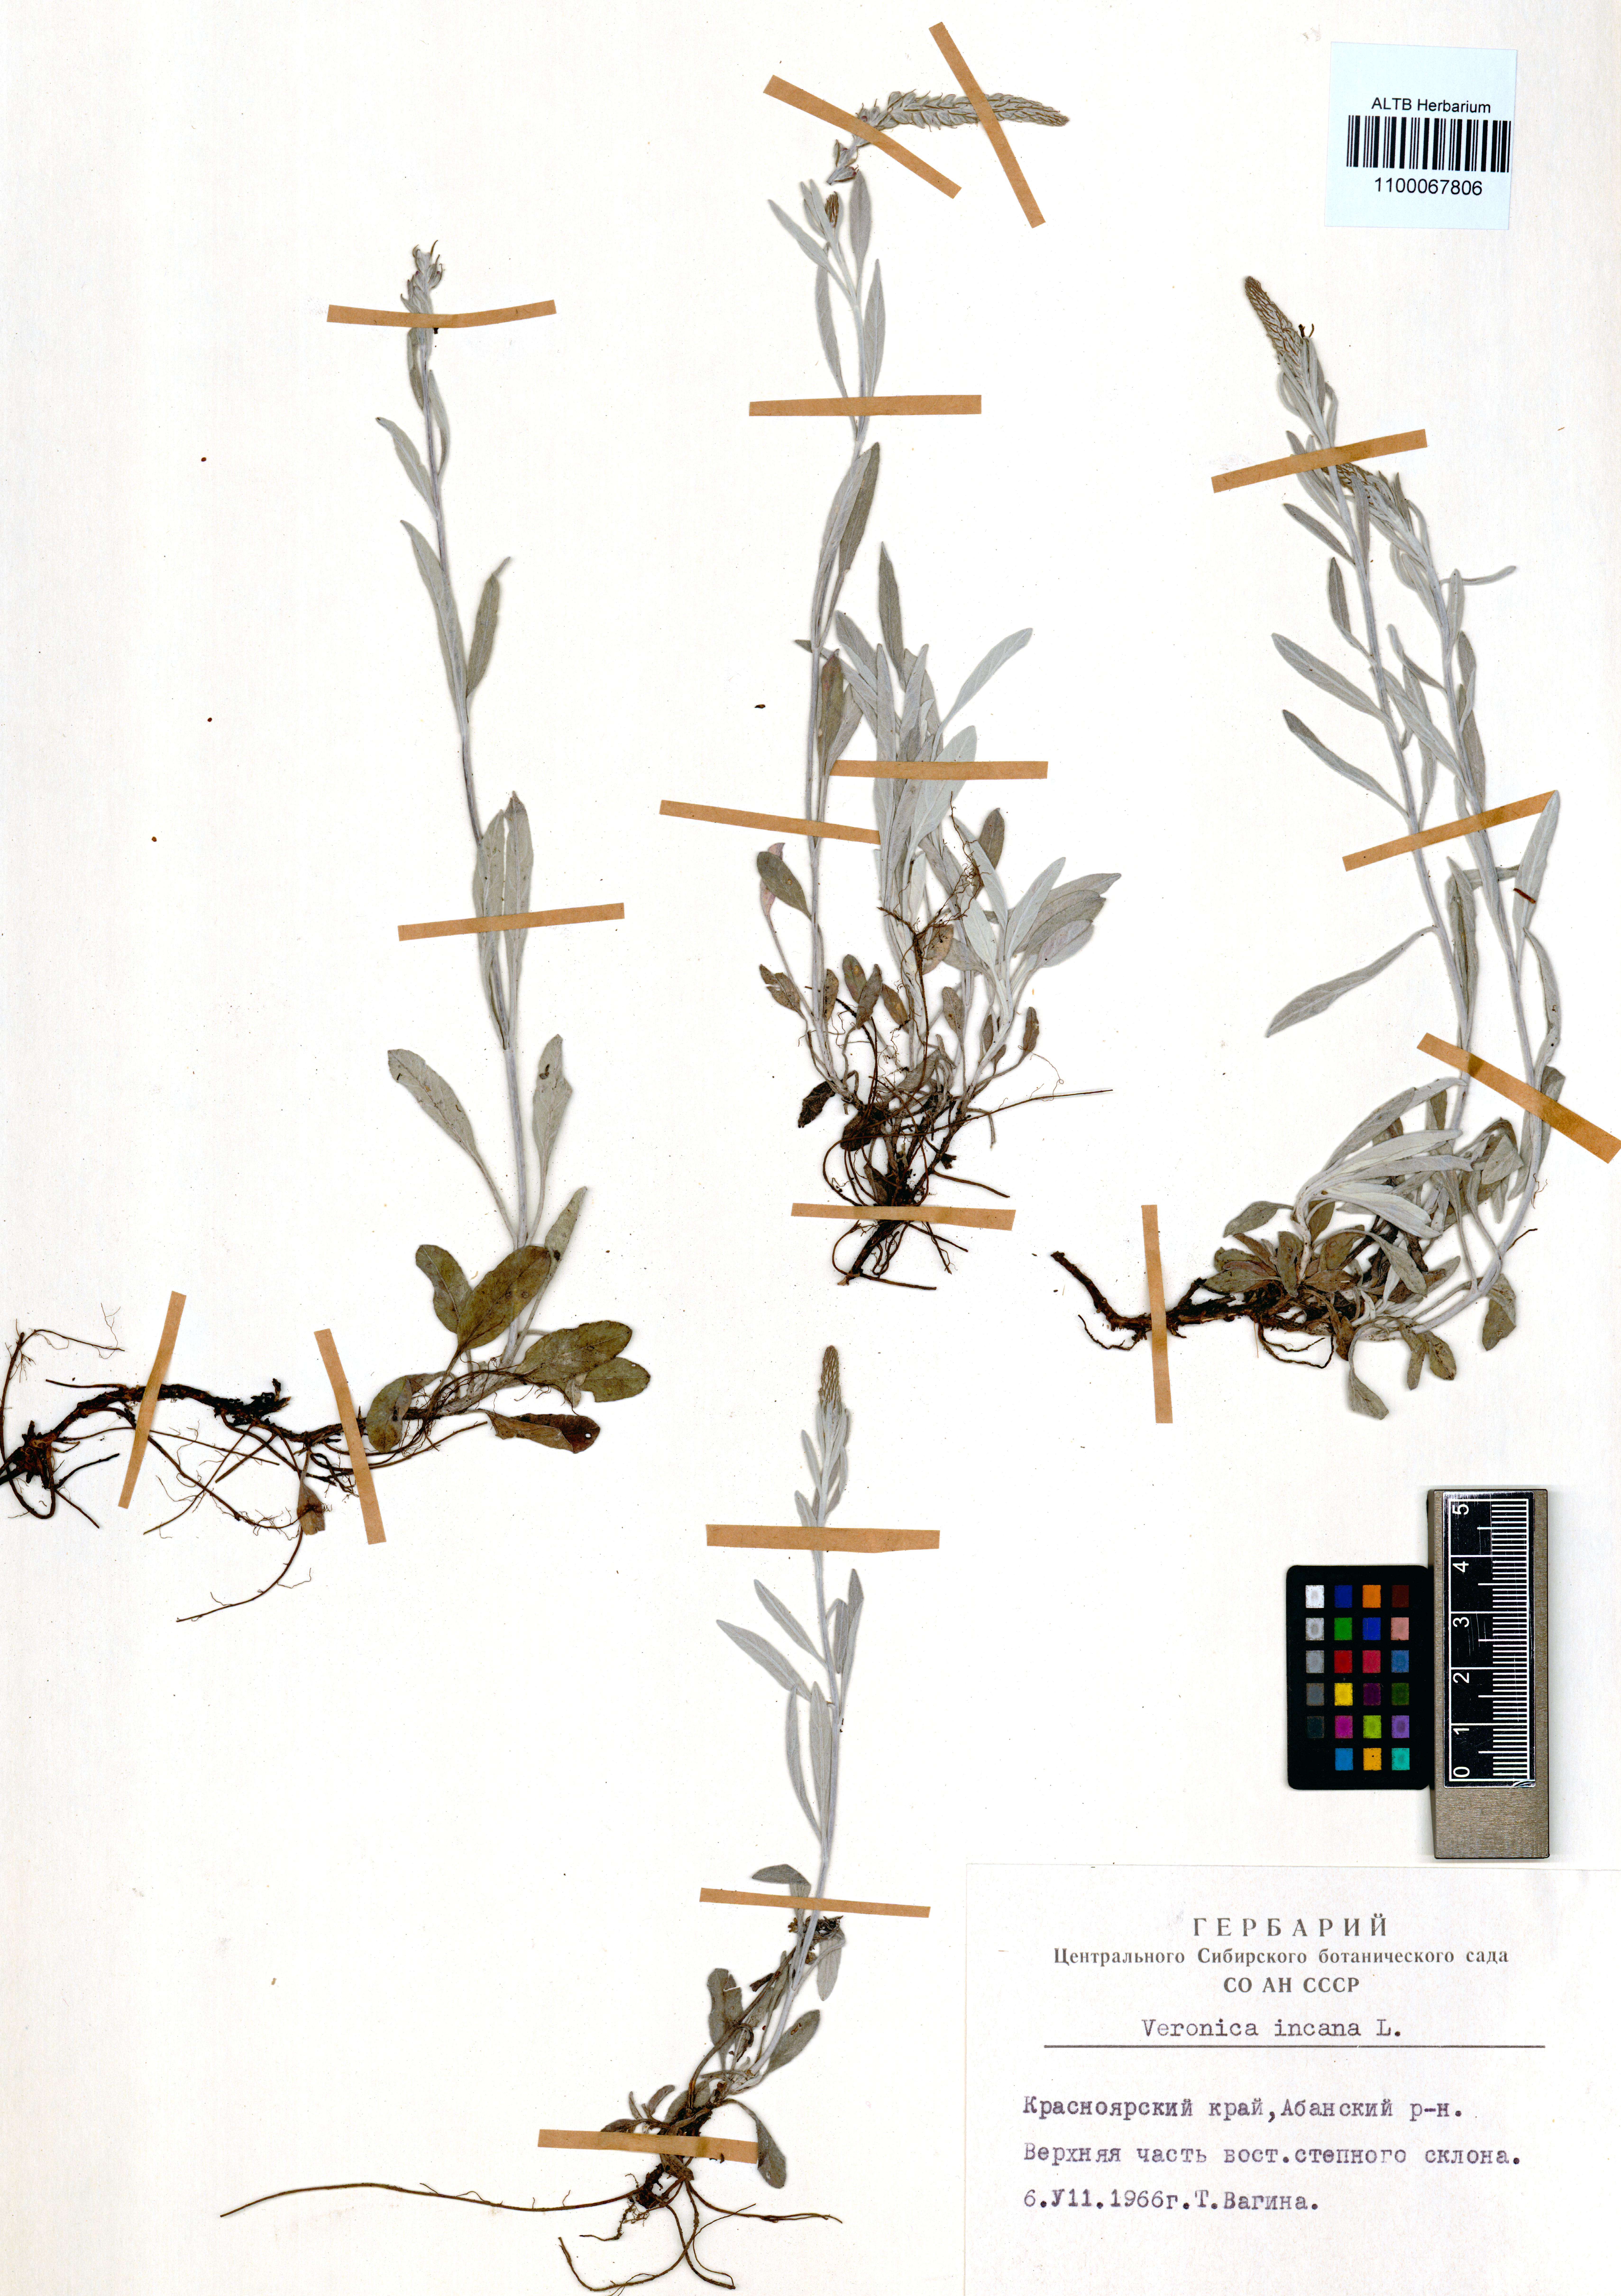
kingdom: Plantae
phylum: Tracheophyta
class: Magnoliopsida
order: Lamiales
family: Plantaginaceae
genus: Veronica
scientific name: Veronica incana
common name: Silver speedwell
